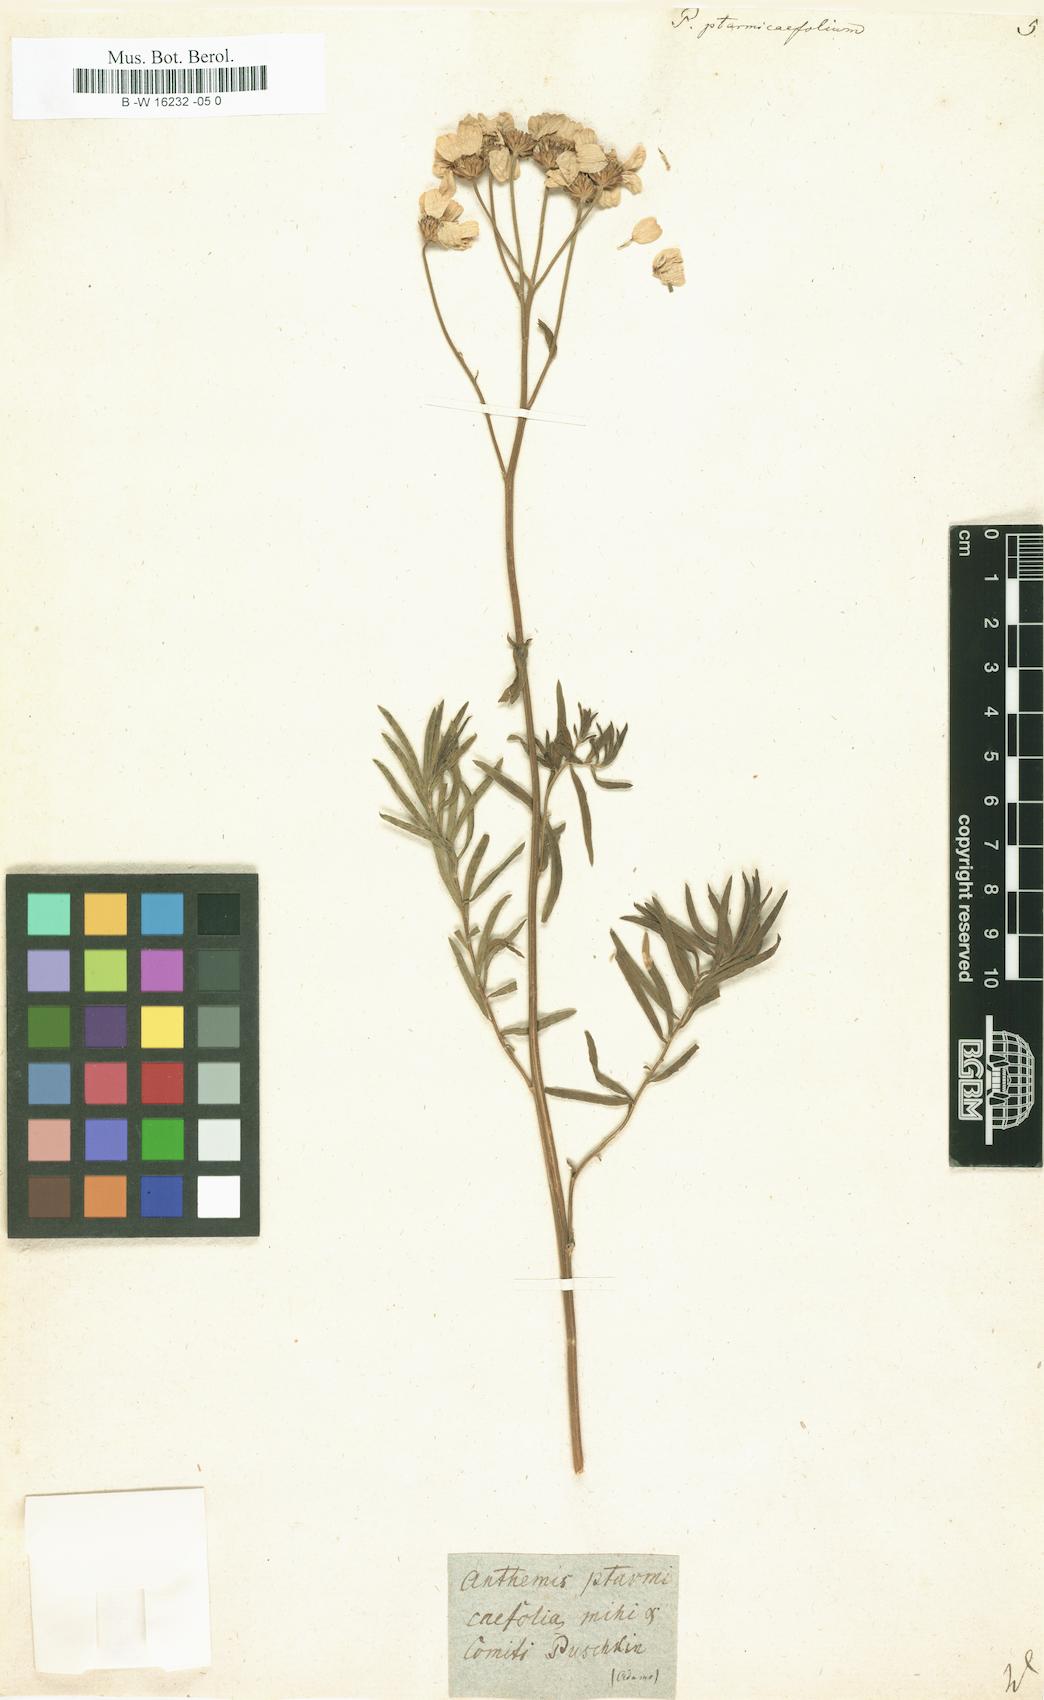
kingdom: Plantae
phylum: Tracheophyta
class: Magnoliopsida
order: Asterales
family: Asteraceae
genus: Achillea
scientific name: Achillea ptarmicifolia
